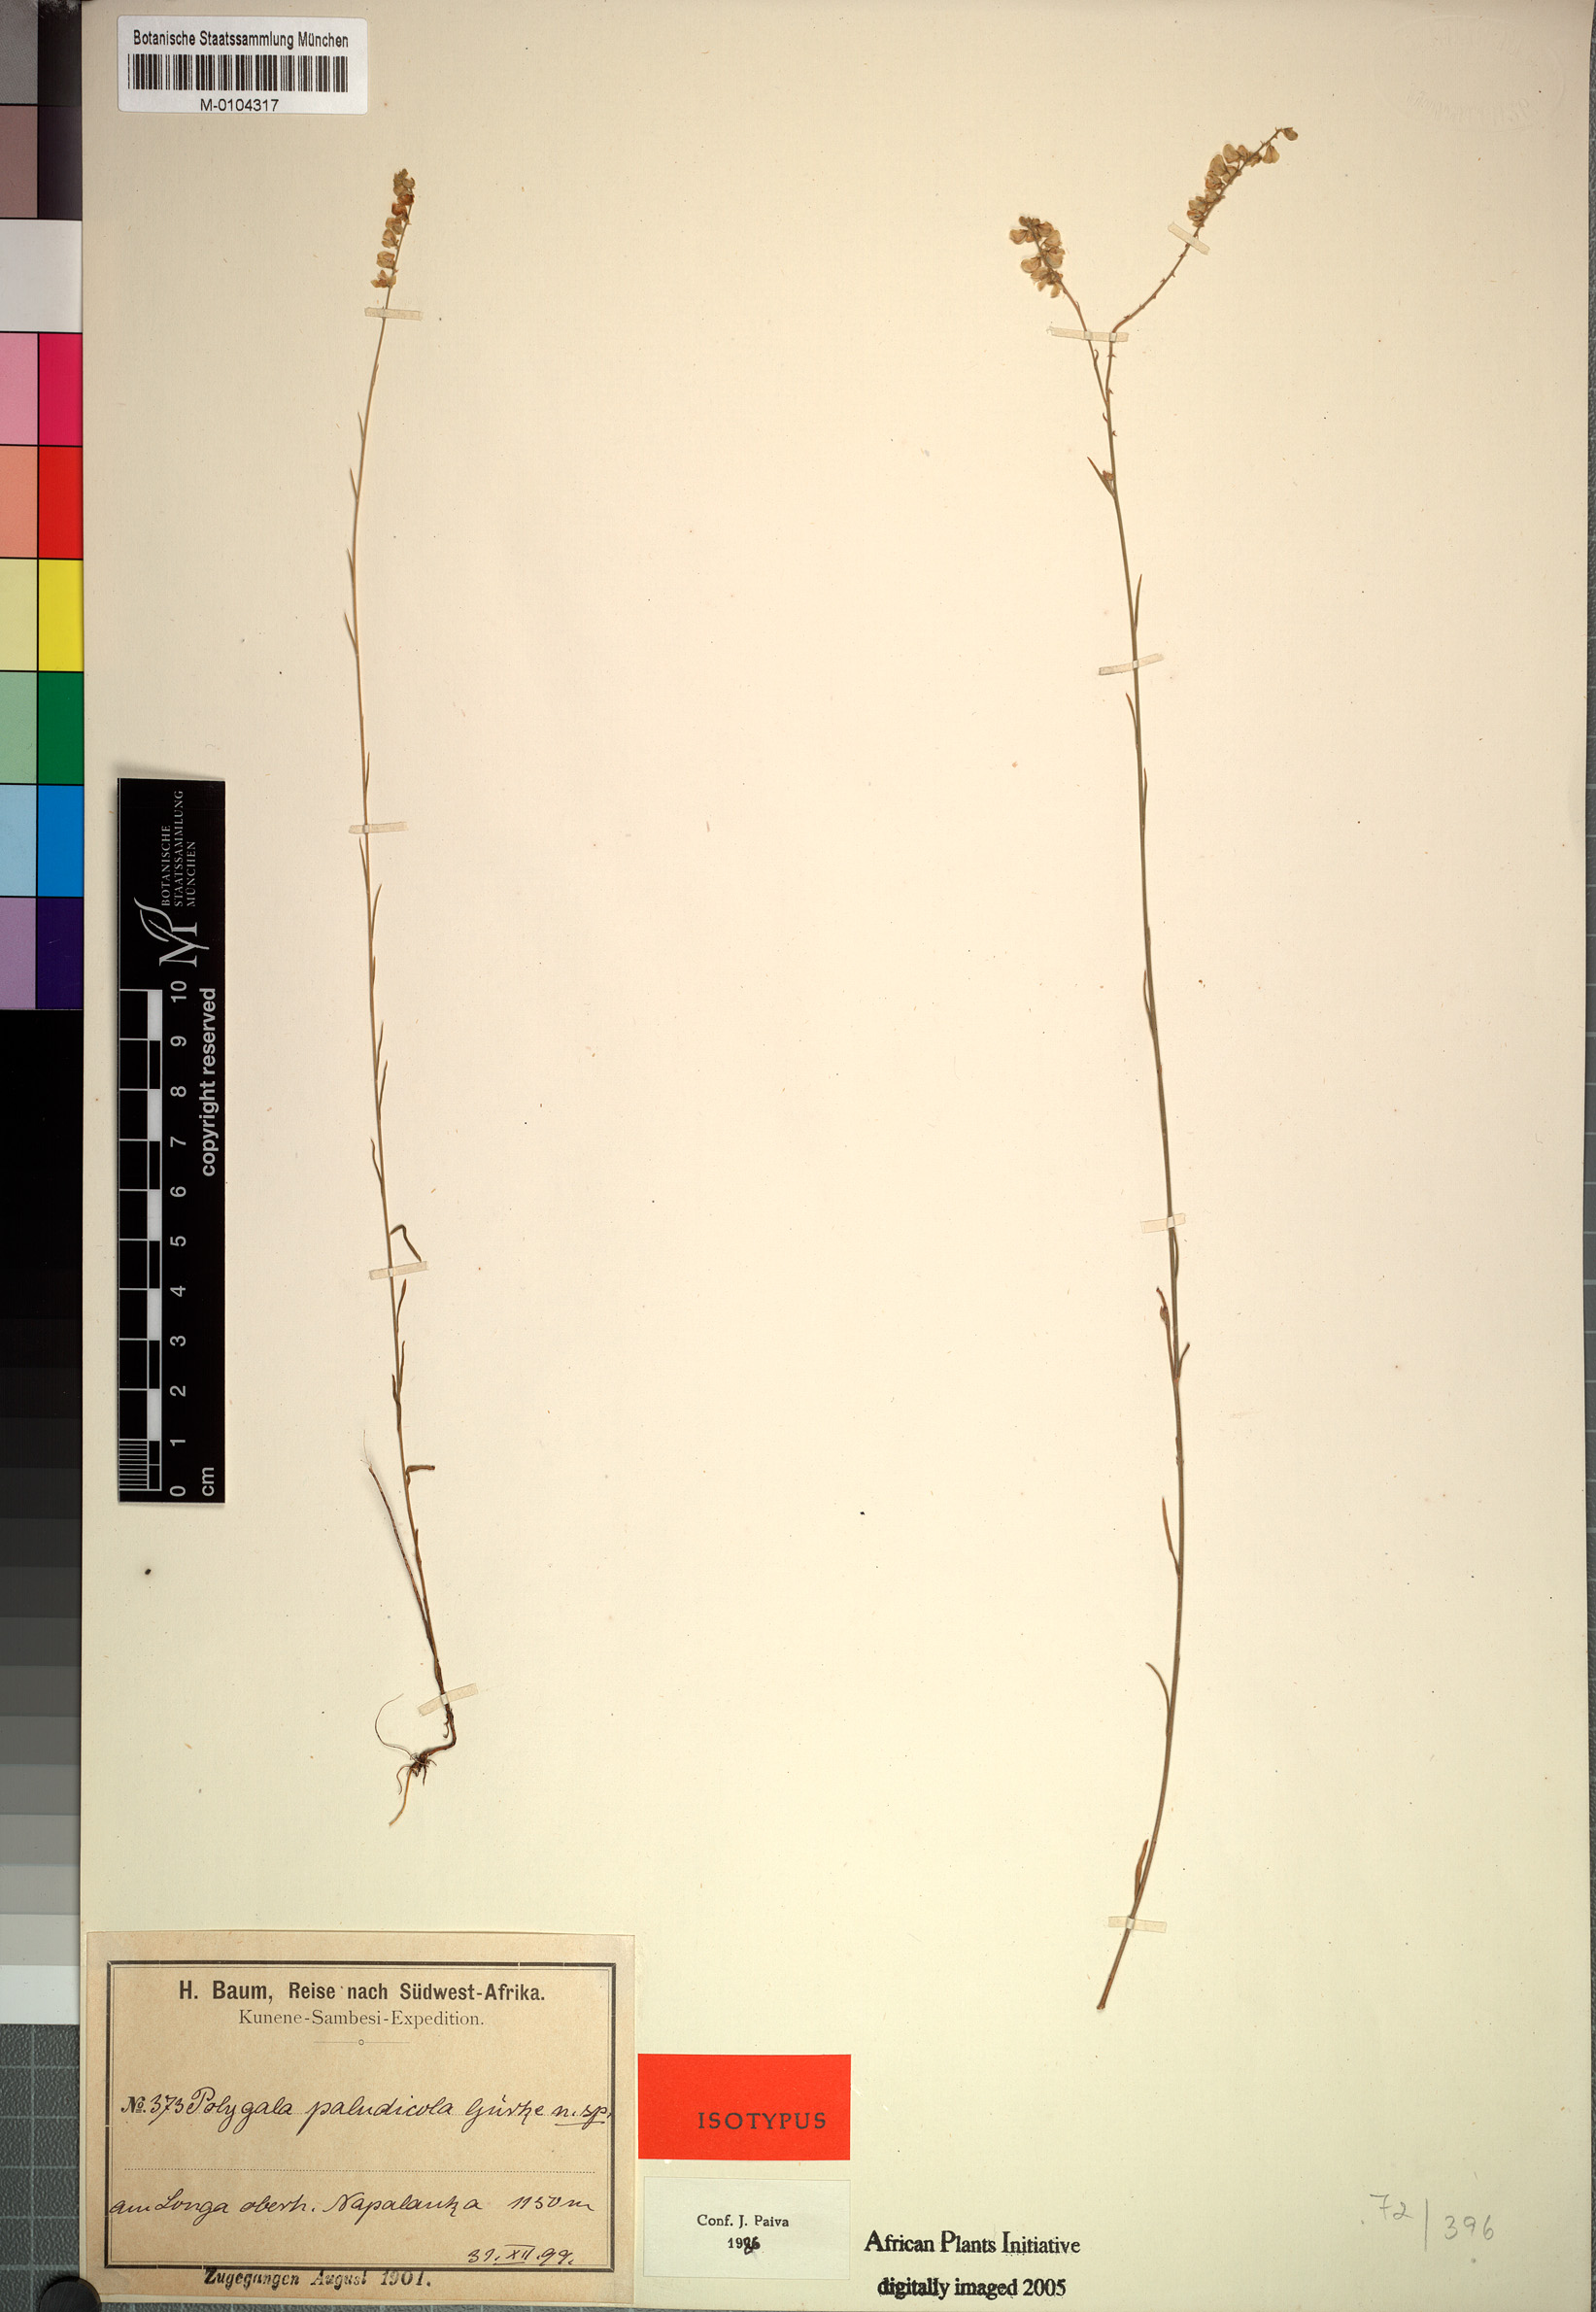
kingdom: Plantae
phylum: Tracheophyta
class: Magnoliopsida
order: Fabales
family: Polygalaceae
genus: Polygala
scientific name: Polygala paludicola
